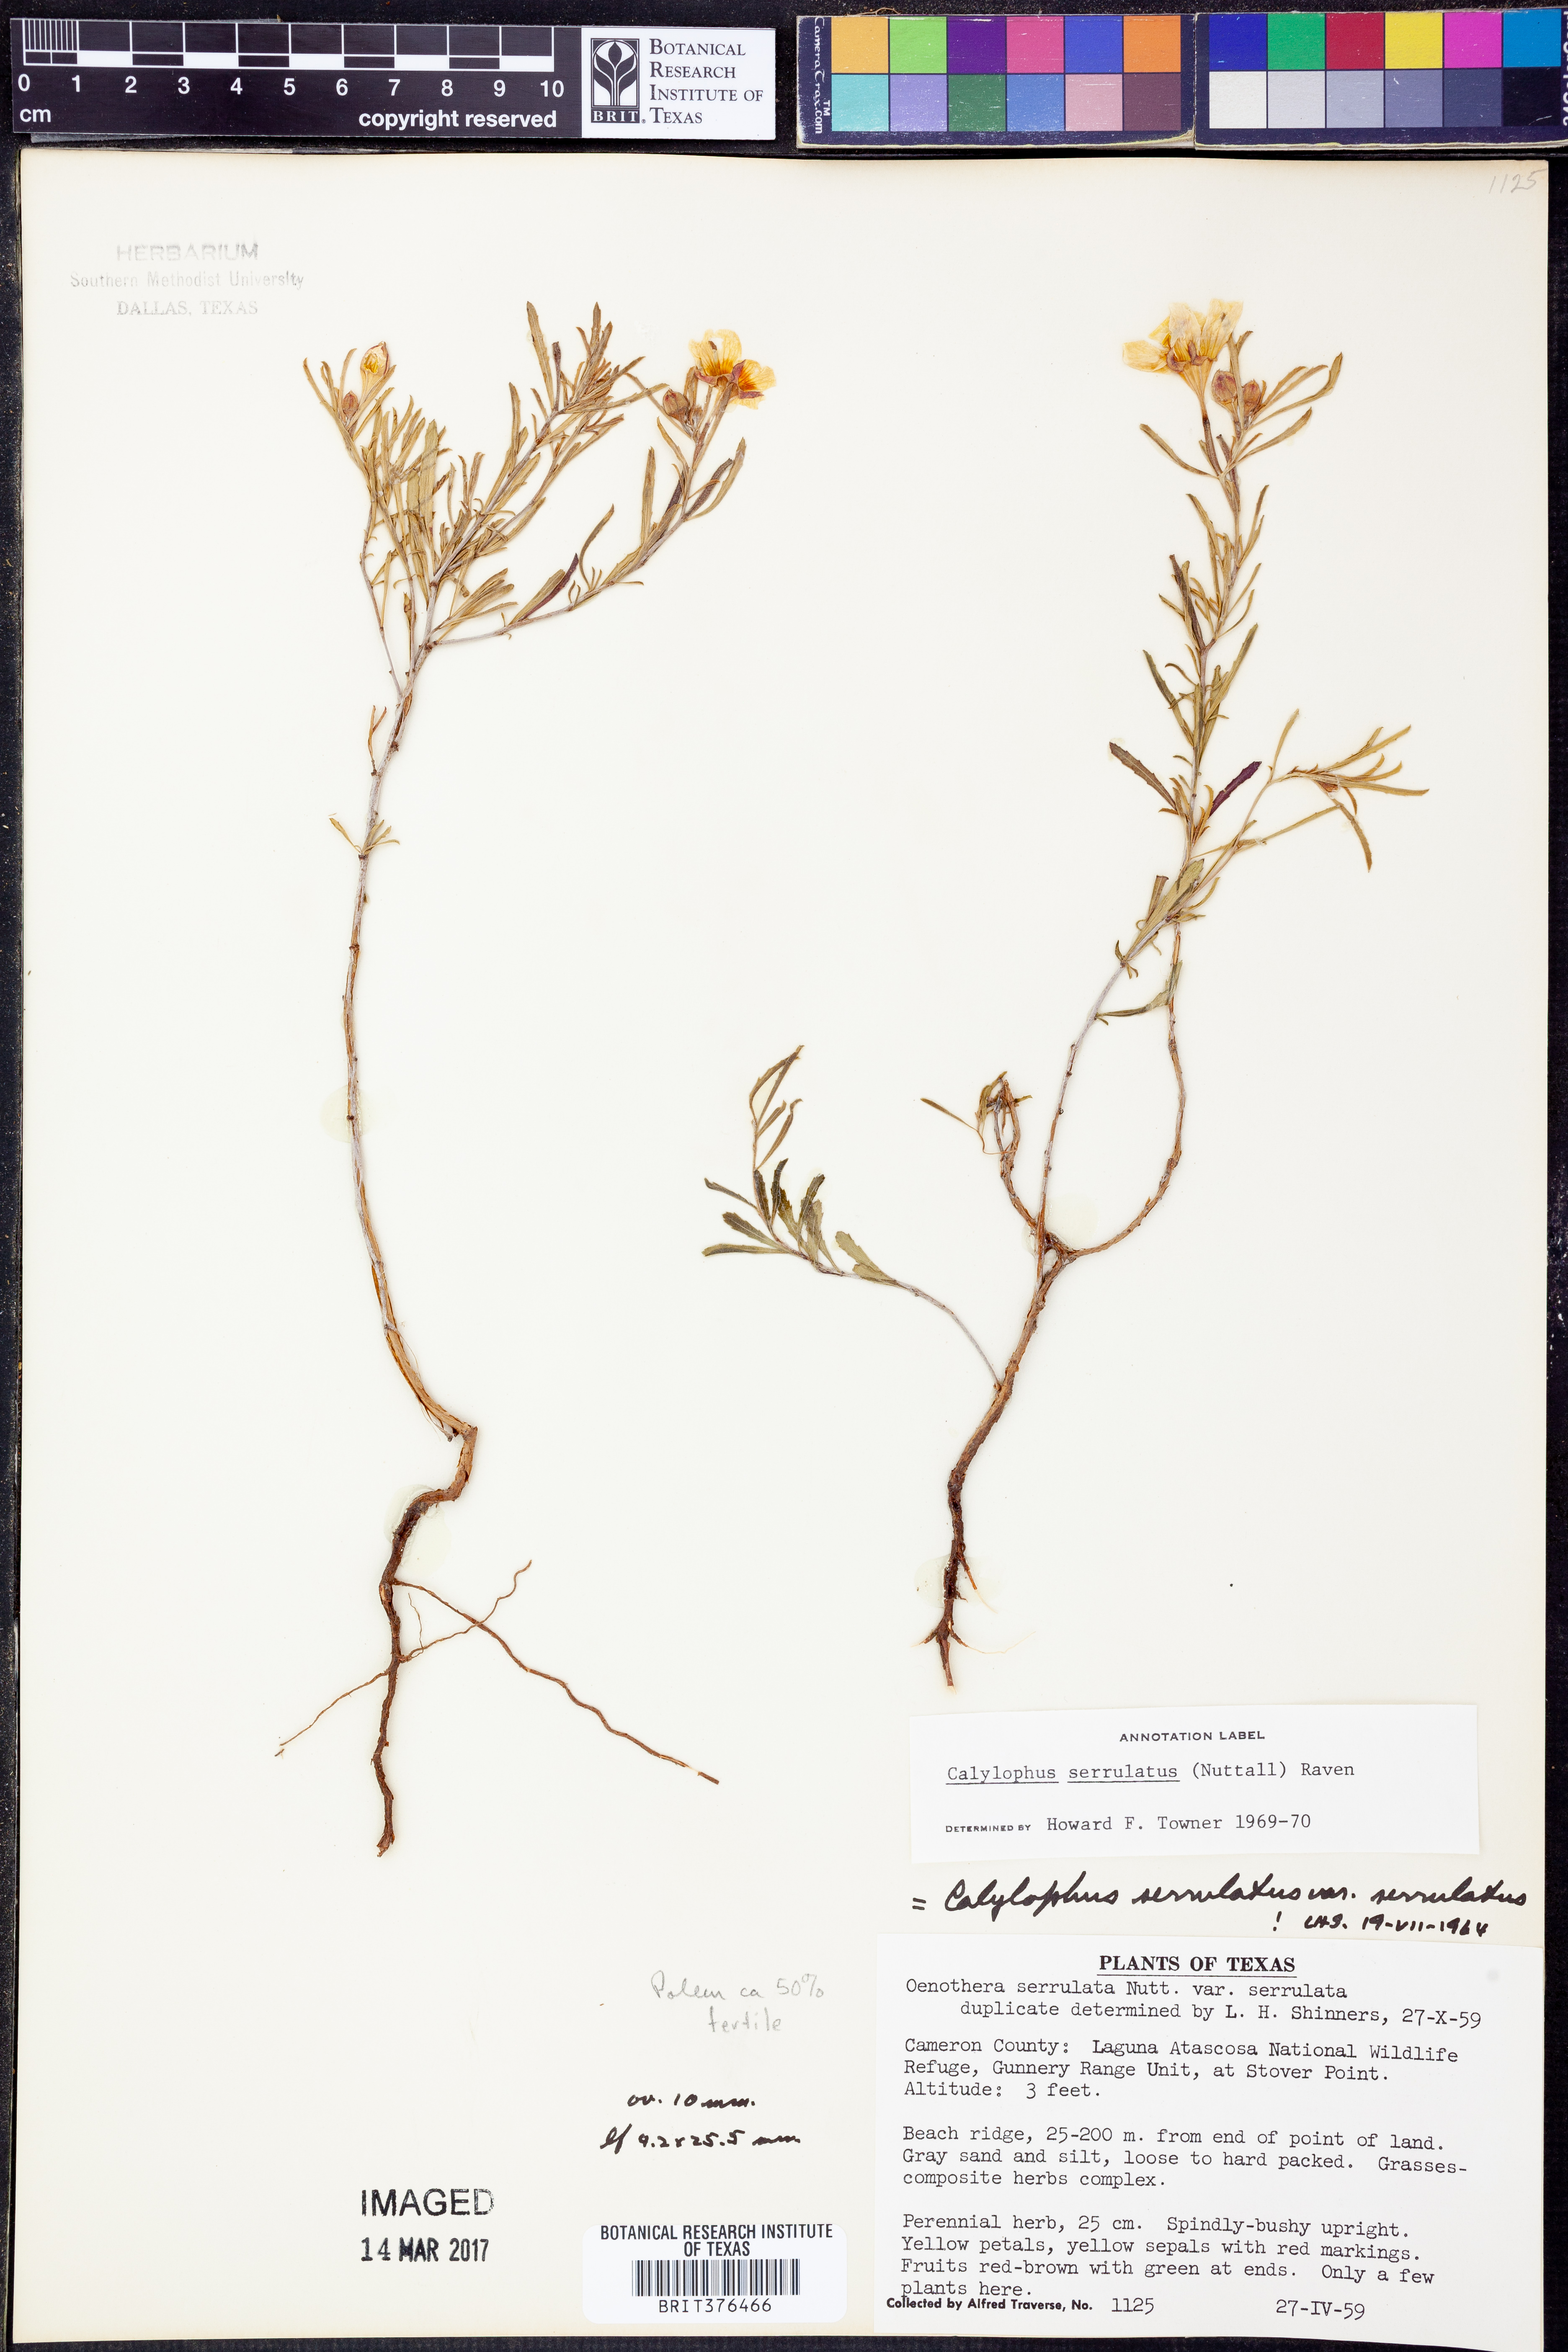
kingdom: Plantae
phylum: Tracheophyta
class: Magnoliopsida
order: Myrtales
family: Onagraceae
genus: Oenothera
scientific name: Oenothera serrulata
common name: Half-shrub calylophus
